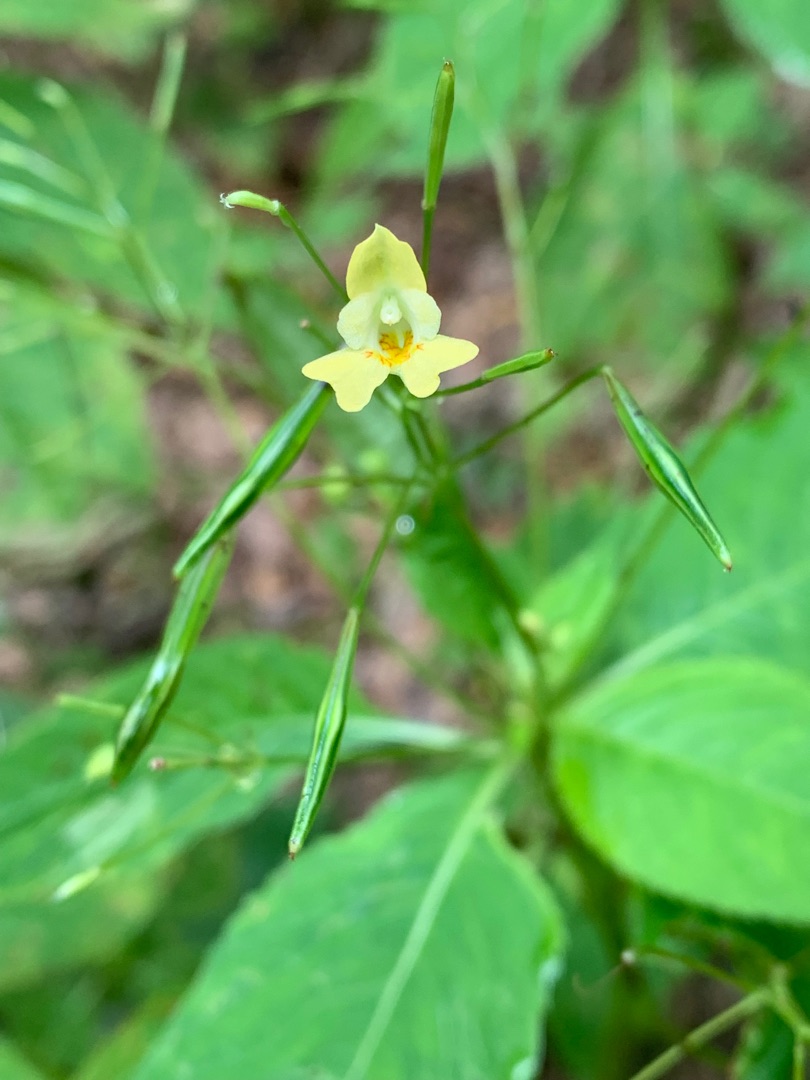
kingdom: Plantae
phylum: Tracheophyta
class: Magnoliopsida
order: Ericales
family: Balsaminaceae
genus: Impatiens
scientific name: Impatiens parviflora
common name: Småblomstret balsamin
